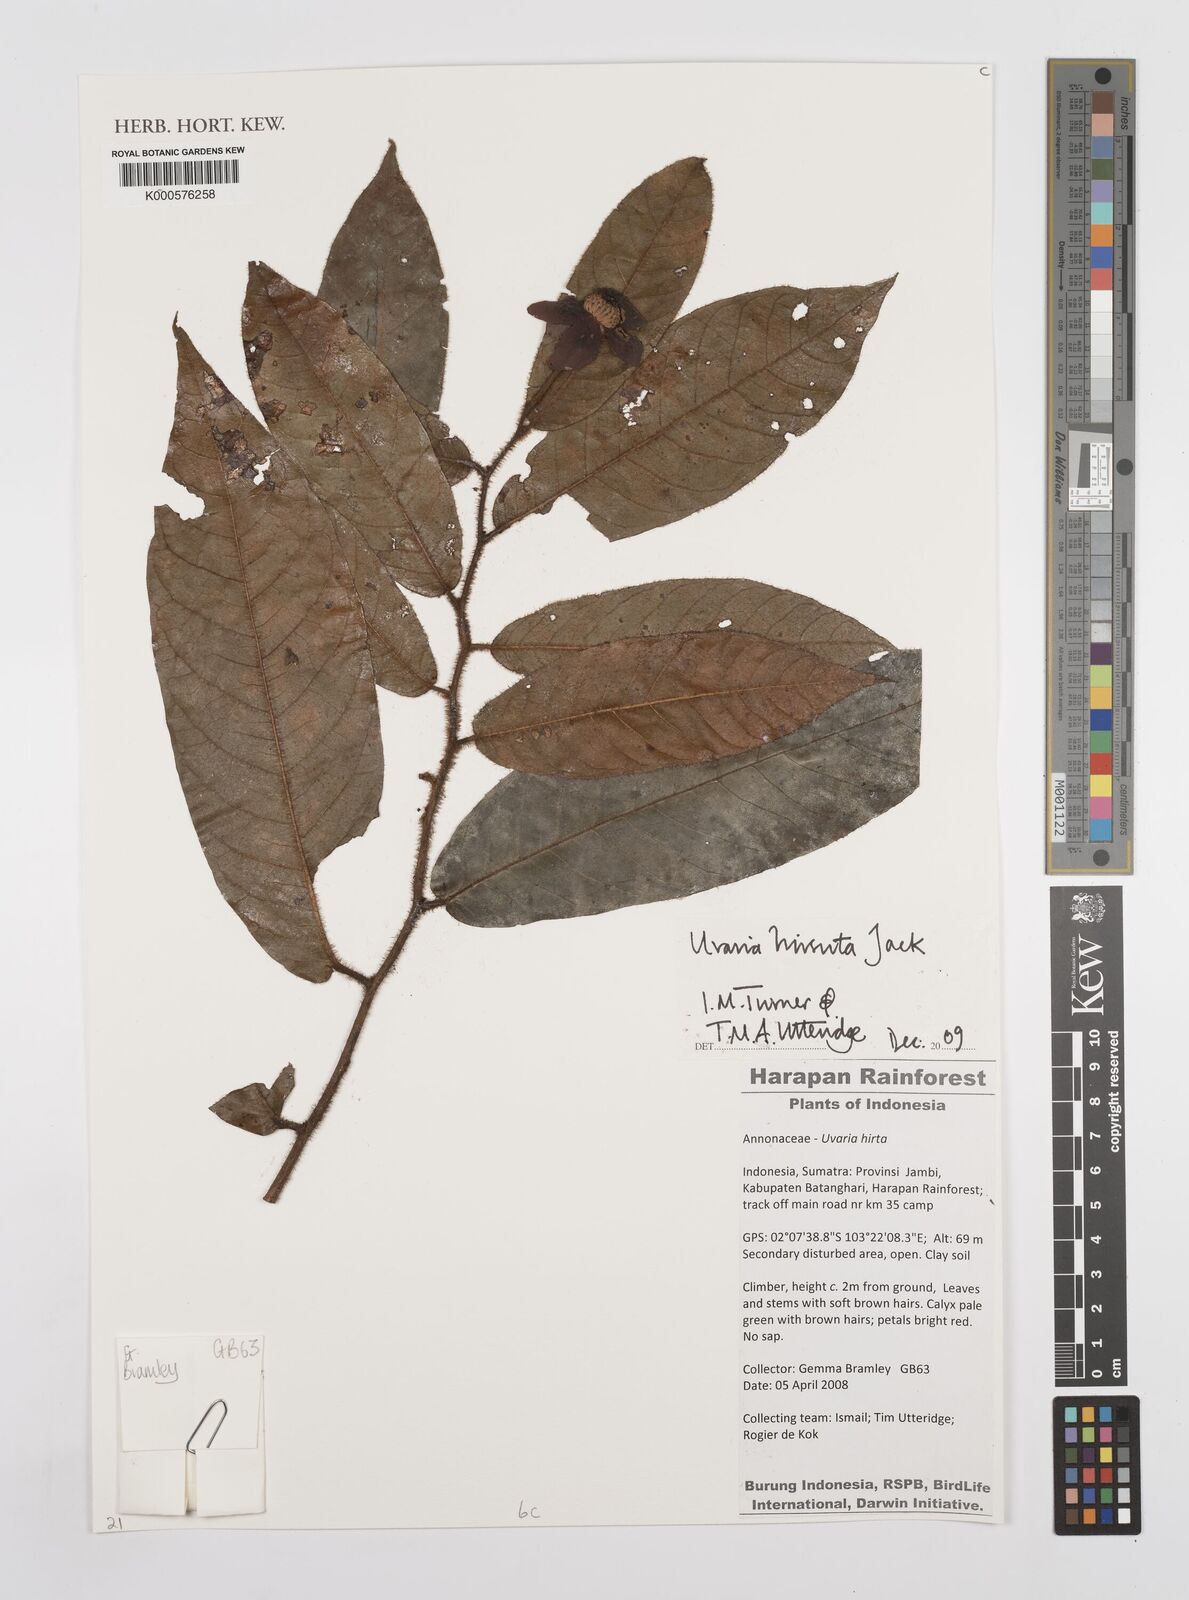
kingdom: Plantae
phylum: Tracheophyta
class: Magnoliopsida
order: Magnoliales
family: Annonaceae
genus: Uvaria
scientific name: Uvaria hirsuta
